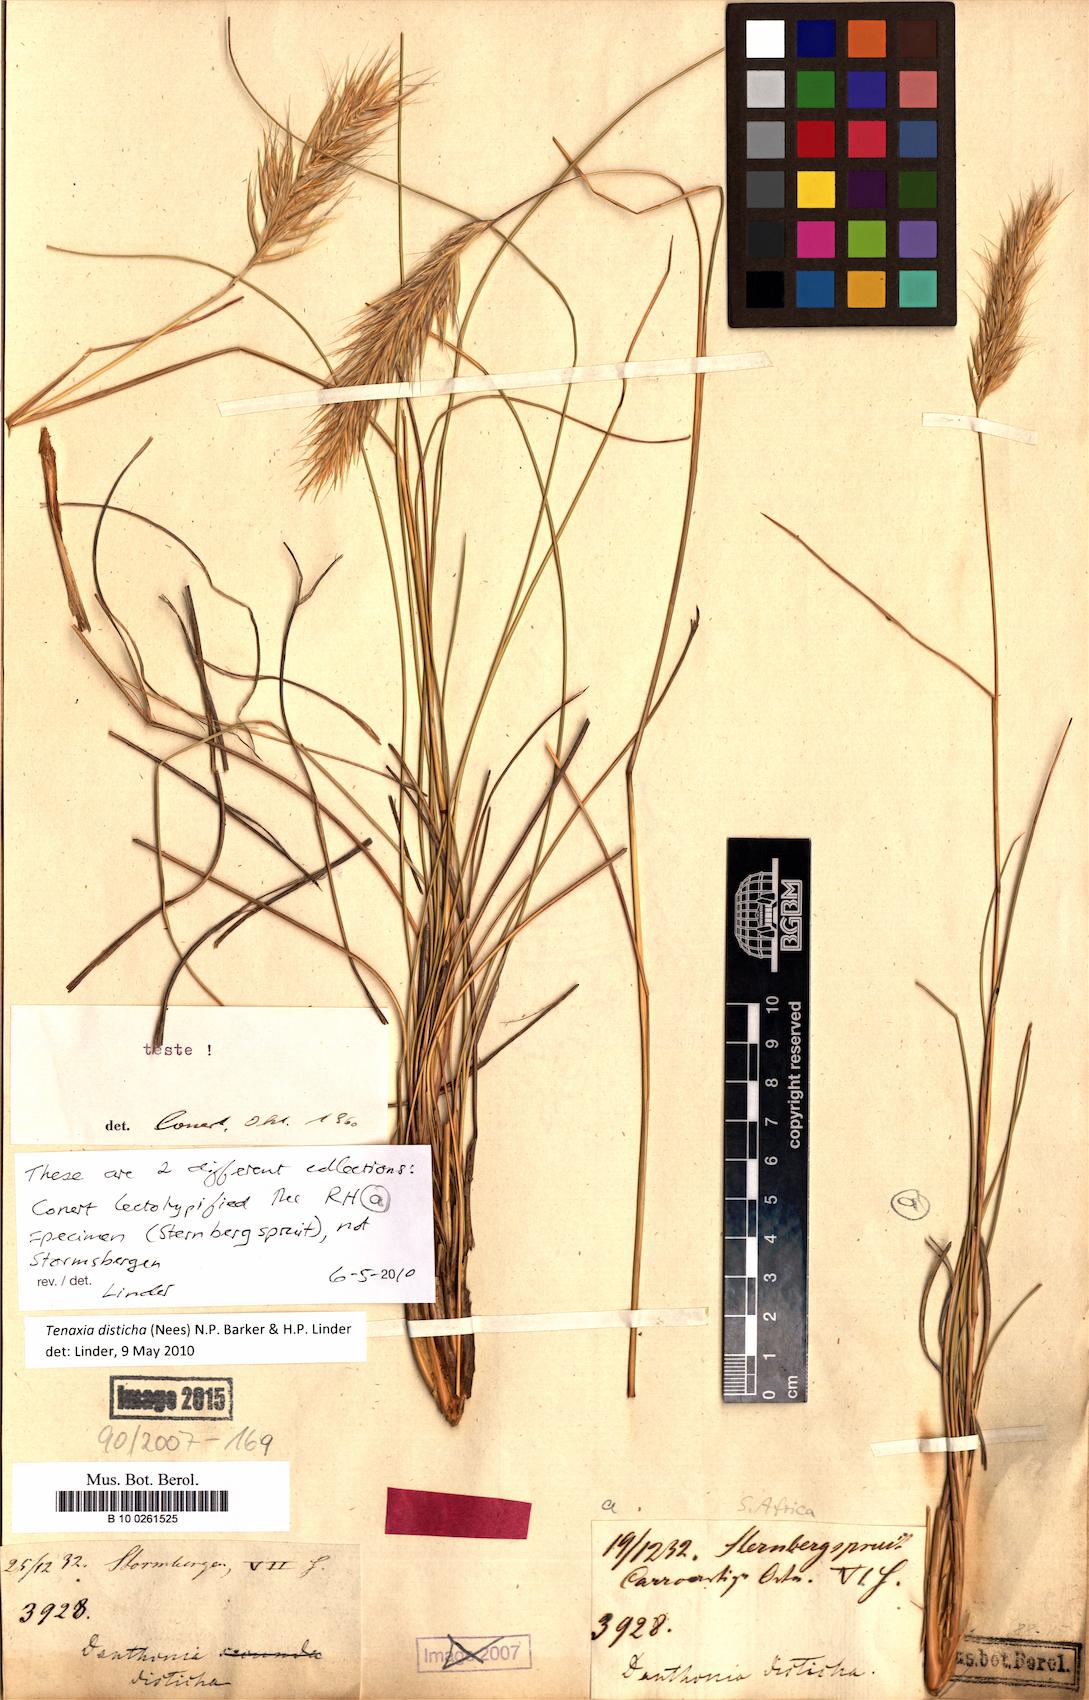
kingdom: Plantae
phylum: Tracheophyta
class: Liliopsida
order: Poales
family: Poaceae
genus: Tenaxia
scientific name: Tenaxia disticha
